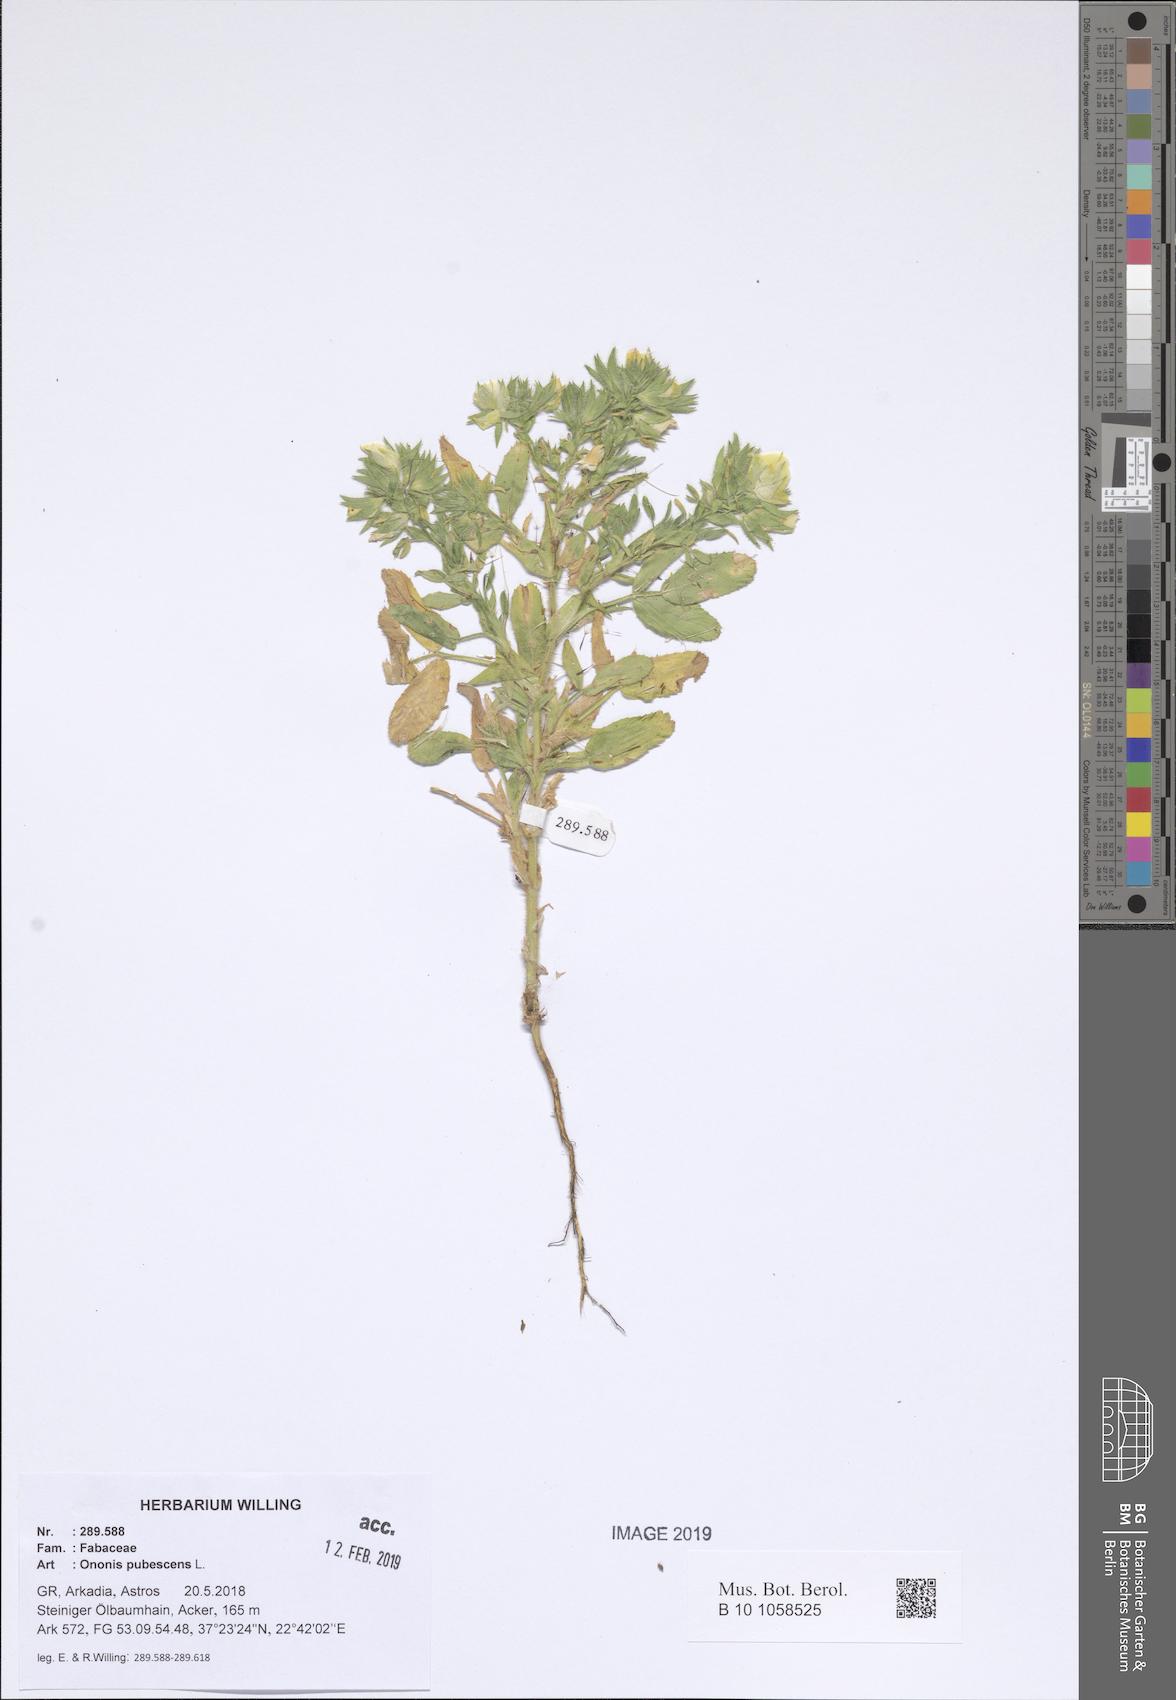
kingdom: Plantae
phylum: Tracheophyta
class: Magnoliopsida
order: Fabales
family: Fabaceae
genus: Ononis
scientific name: Ononis pubescens
